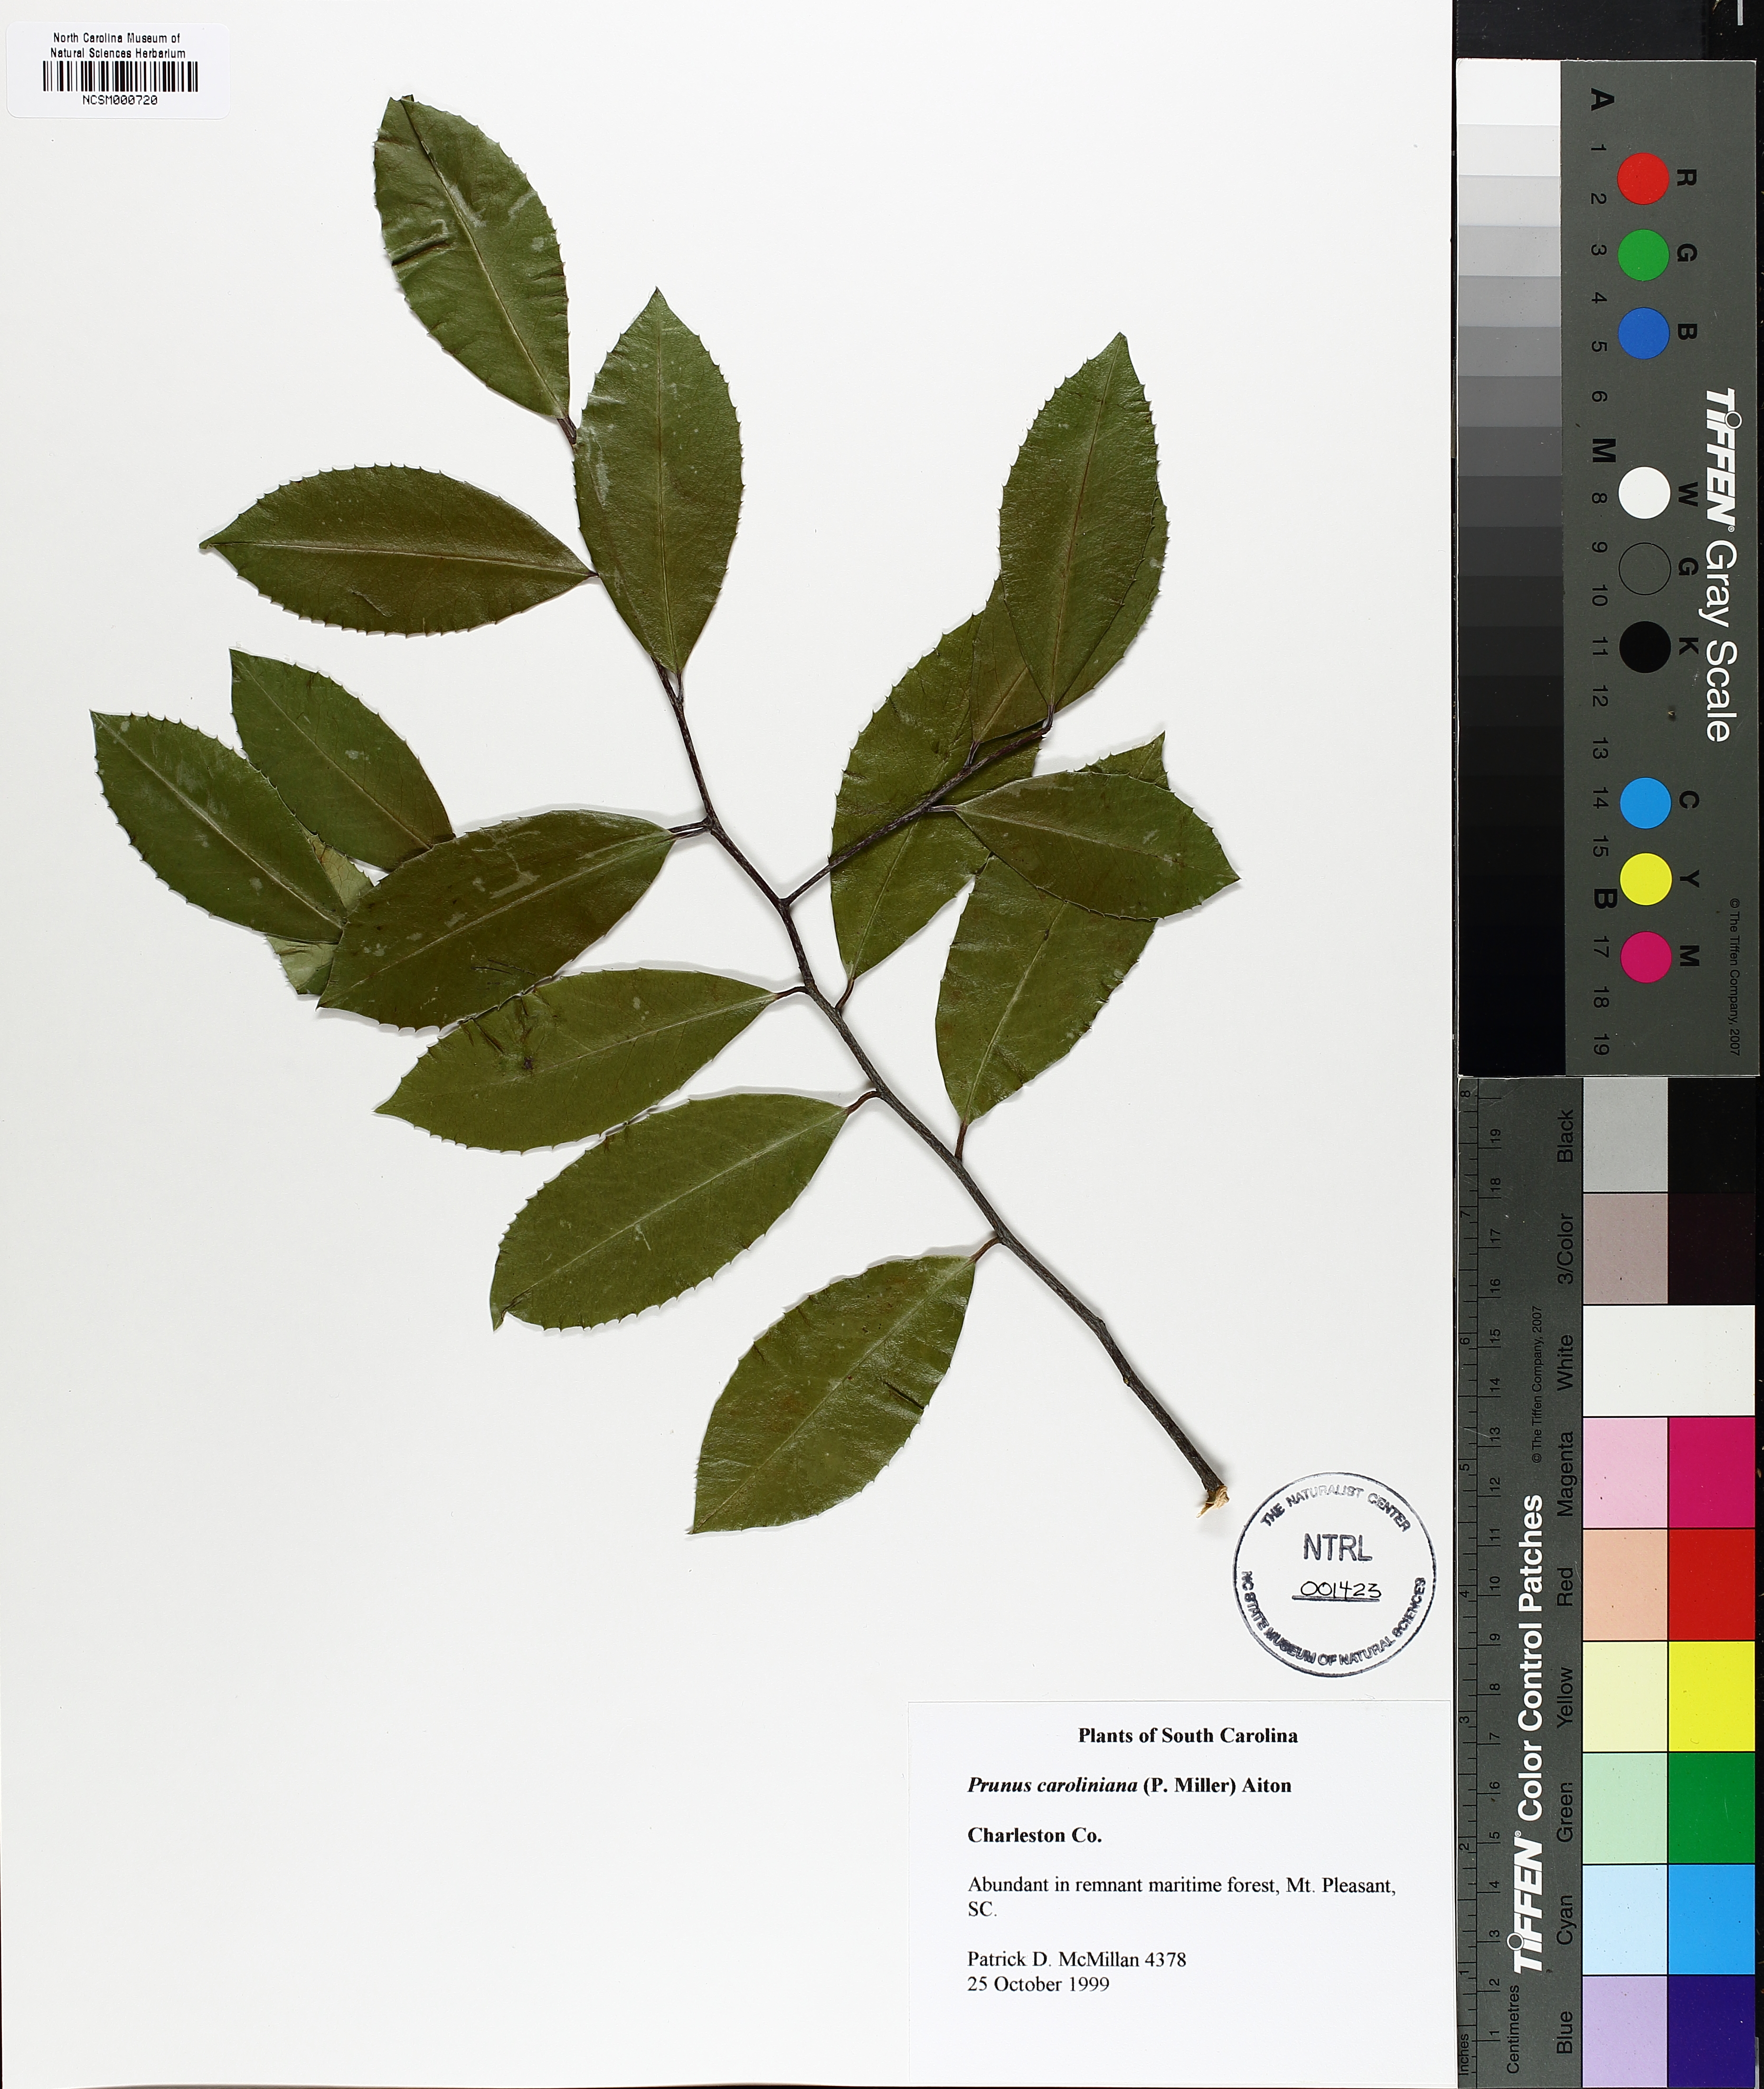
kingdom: Plantae
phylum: Tracheophyta
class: Magnoliopsida
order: Rosales
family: Rosaceae
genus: Prunus
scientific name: Prunus caroliniana
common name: Carolina laurel cherry
